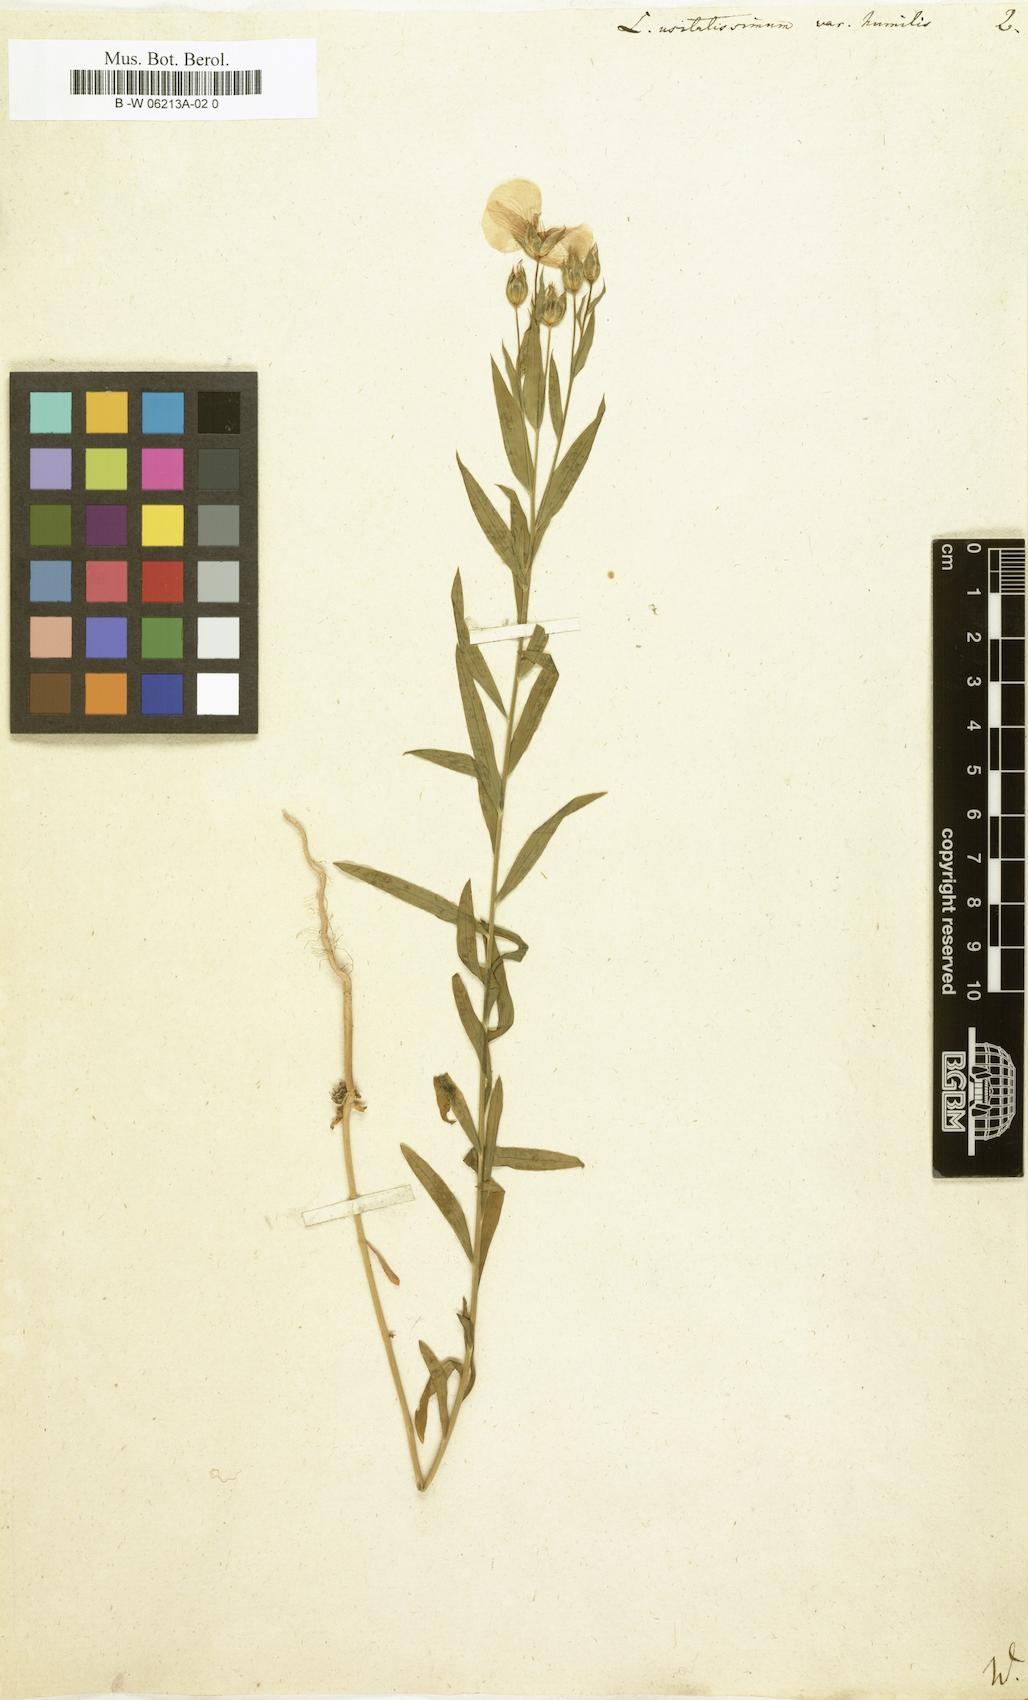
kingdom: Plantae
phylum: Tracheophyta
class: Magnoliopsida
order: Malpighiales
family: Linaceae
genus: Linum
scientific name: Linum usitatissimum
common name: Flax
